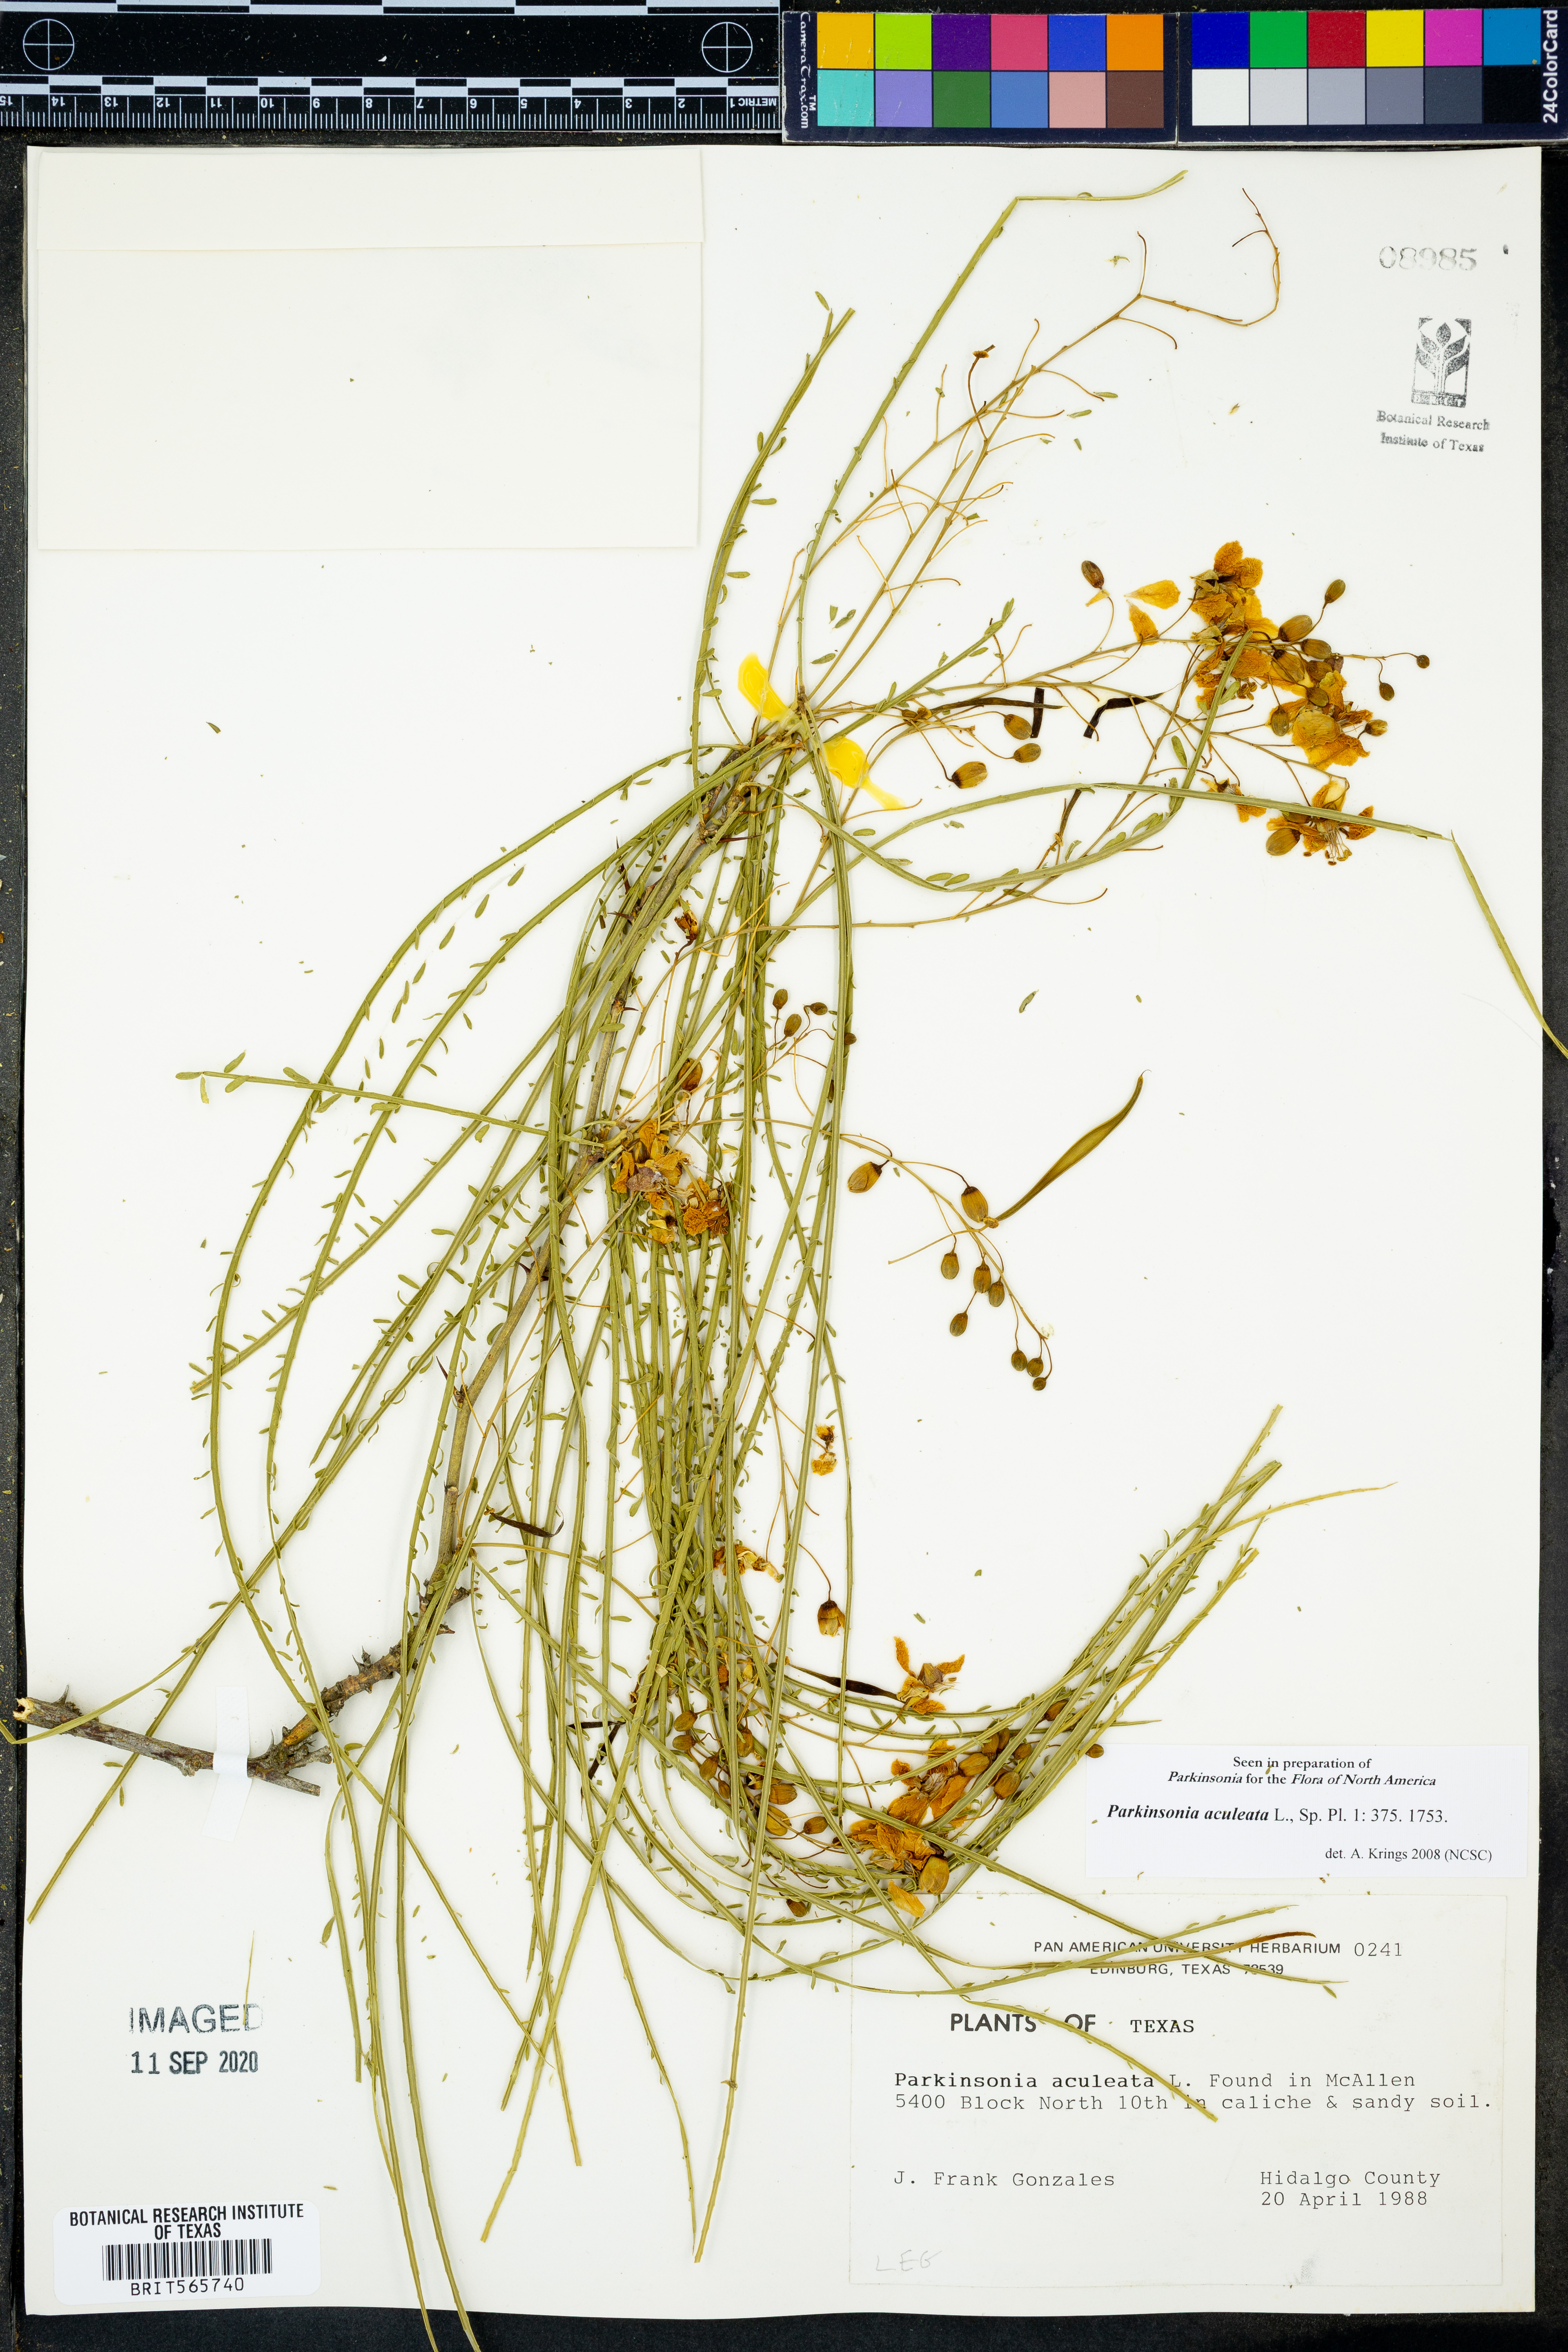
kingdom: Plantae
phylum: Tracheophyta
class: Magnoliopsida
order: Fabales
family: Fabaceae
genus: Parkinsonia
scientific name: Parkinsonia aculeata
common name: Jerusalem thorn
